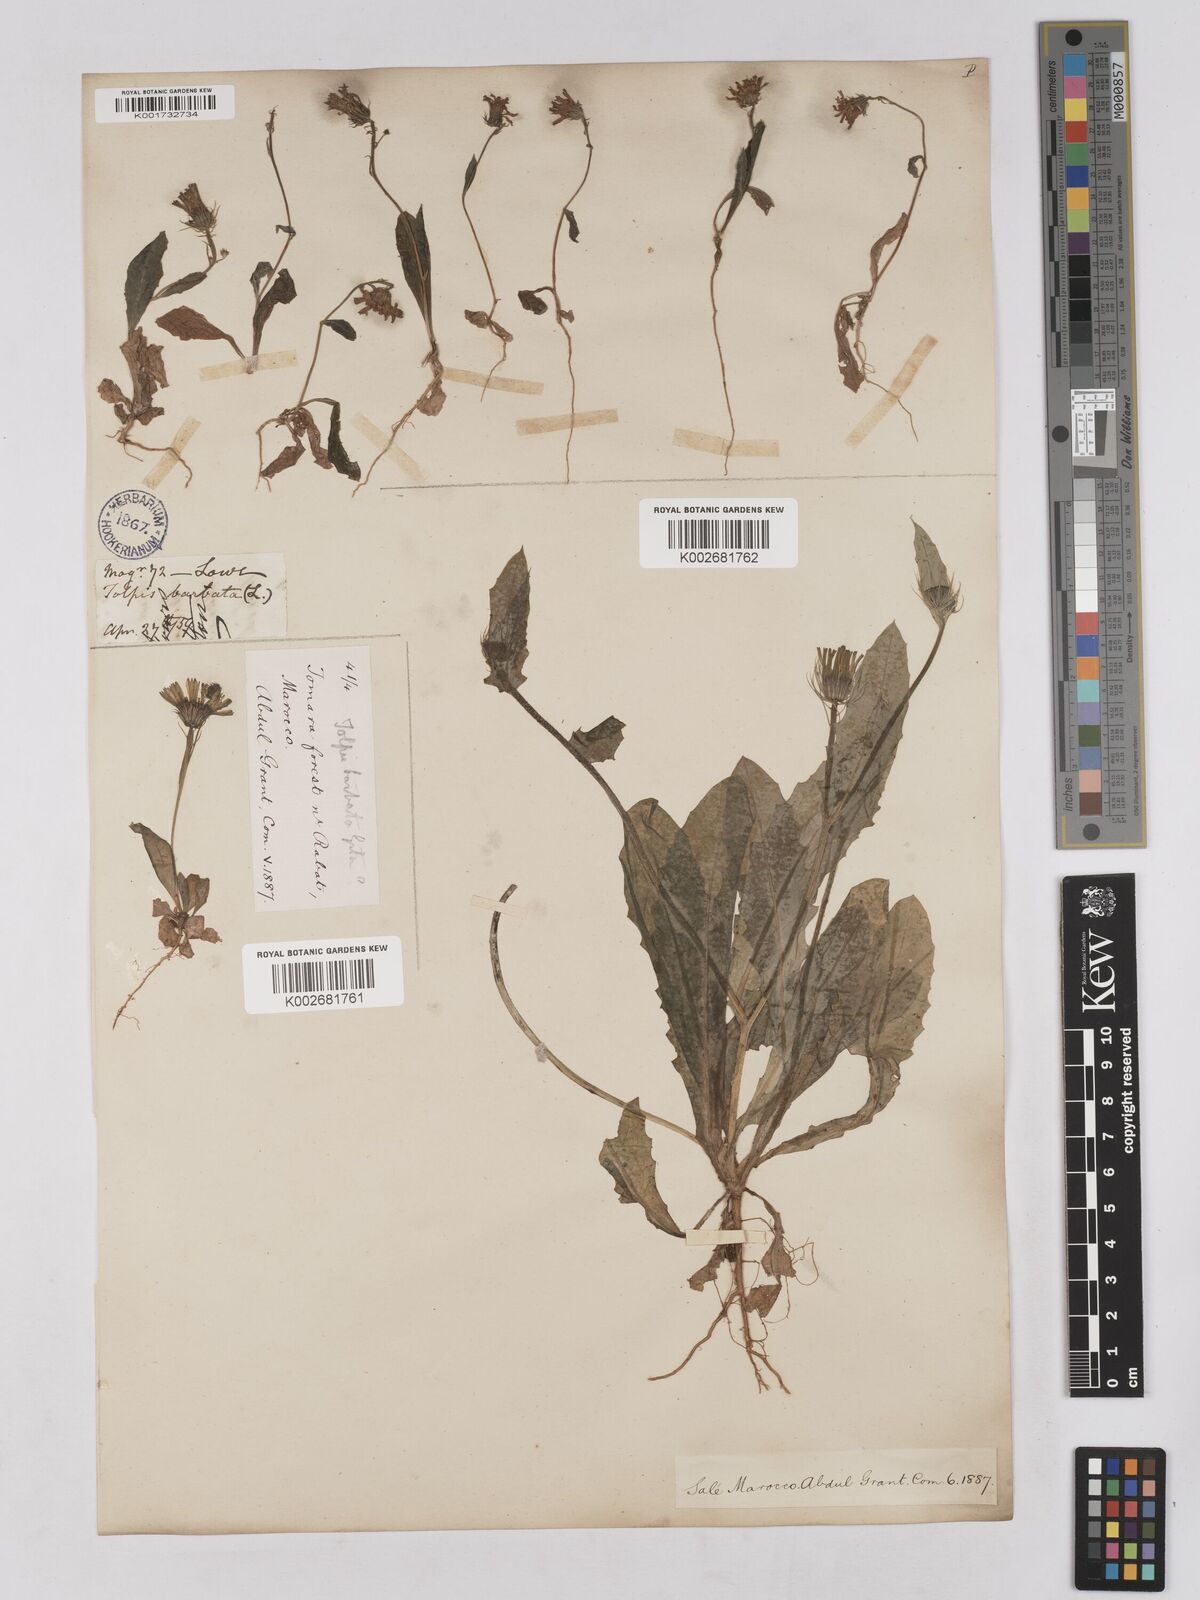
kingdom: Plantae
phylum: Tracheophyta
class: Magnoliopsida
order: Asterales
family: Asteraceae
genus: Tolpis
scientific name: Tolpis barbata
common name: Yellow hawkweed
